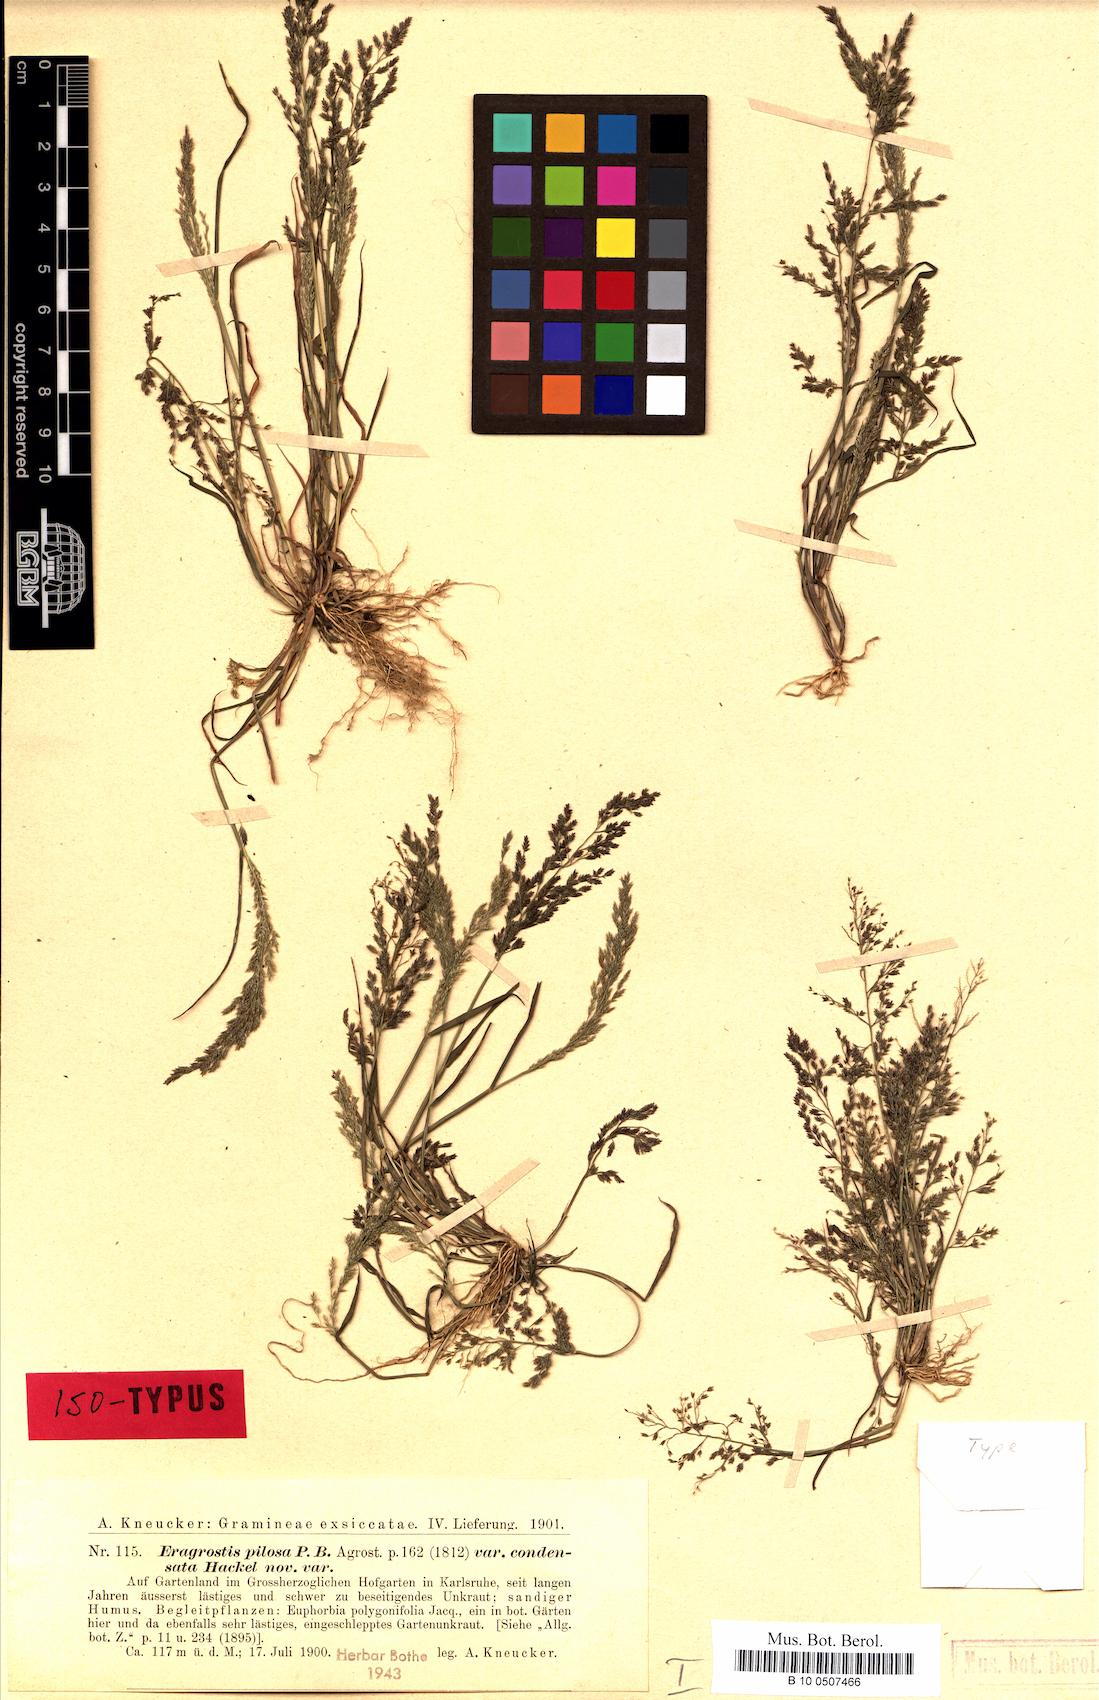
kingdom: Plantae
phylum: Tracheophyta
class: Liliopsida
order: Poales
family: Poaceae
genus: Eragrostis
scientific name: Eragrostis multicaulis
